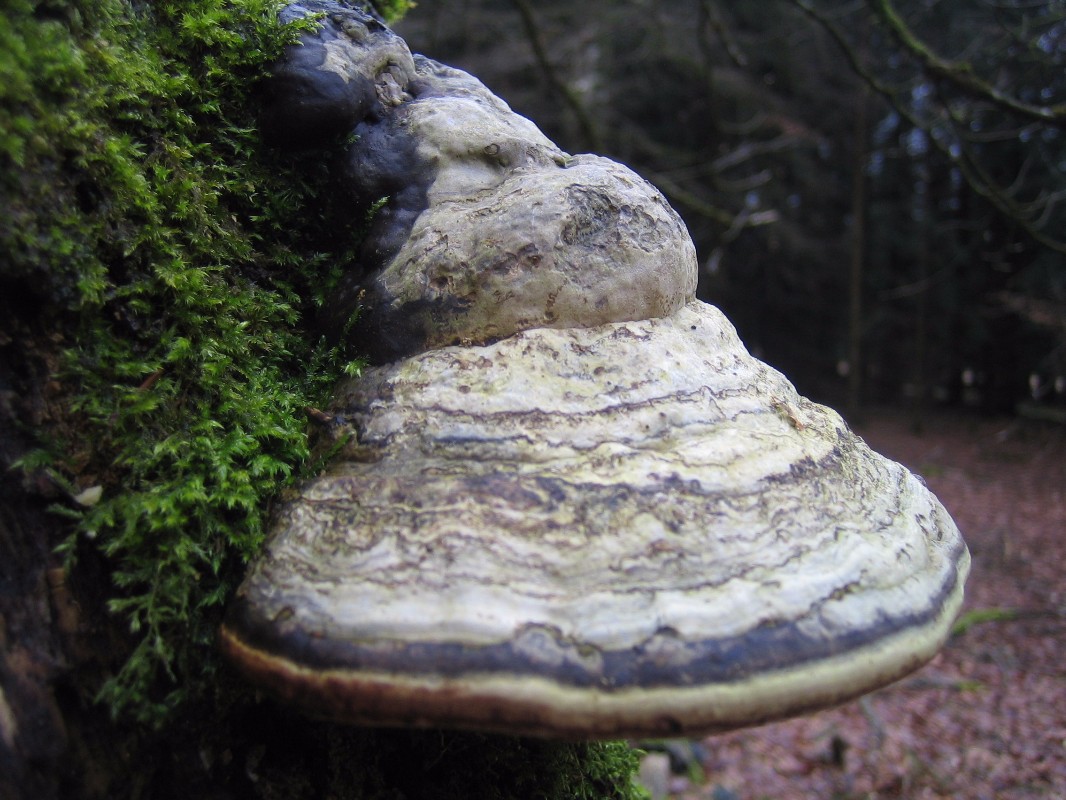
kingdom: Fungi
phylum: Basidiomycota
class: Agaricomycetes
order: Polyporales
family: Polyporaceae
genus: Fomes
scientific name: Fomes fomentarius
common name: tøndersvamp
